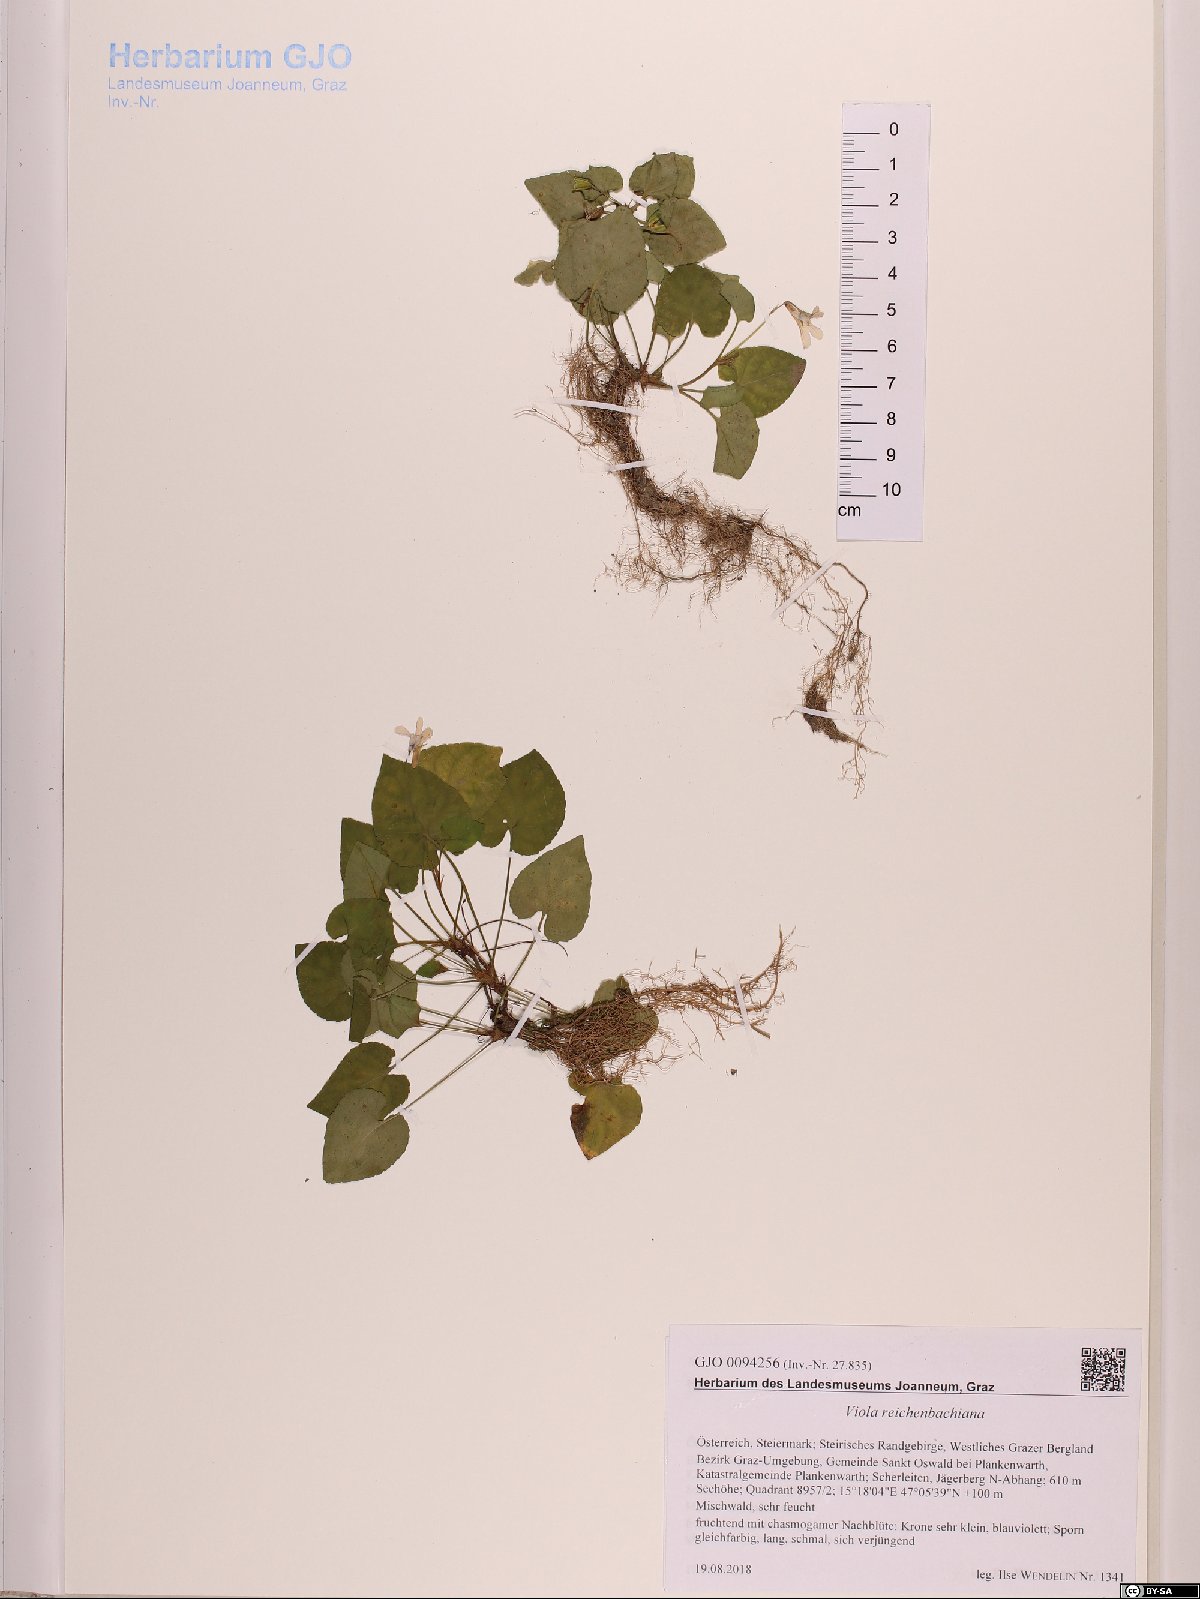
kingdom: Plantae
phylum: Tracheophyta
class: Magnoliopsida
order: Malpighiales
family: Violaceae
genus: Viola
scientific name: Viola reichenbachiana
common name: Early dog-violet
